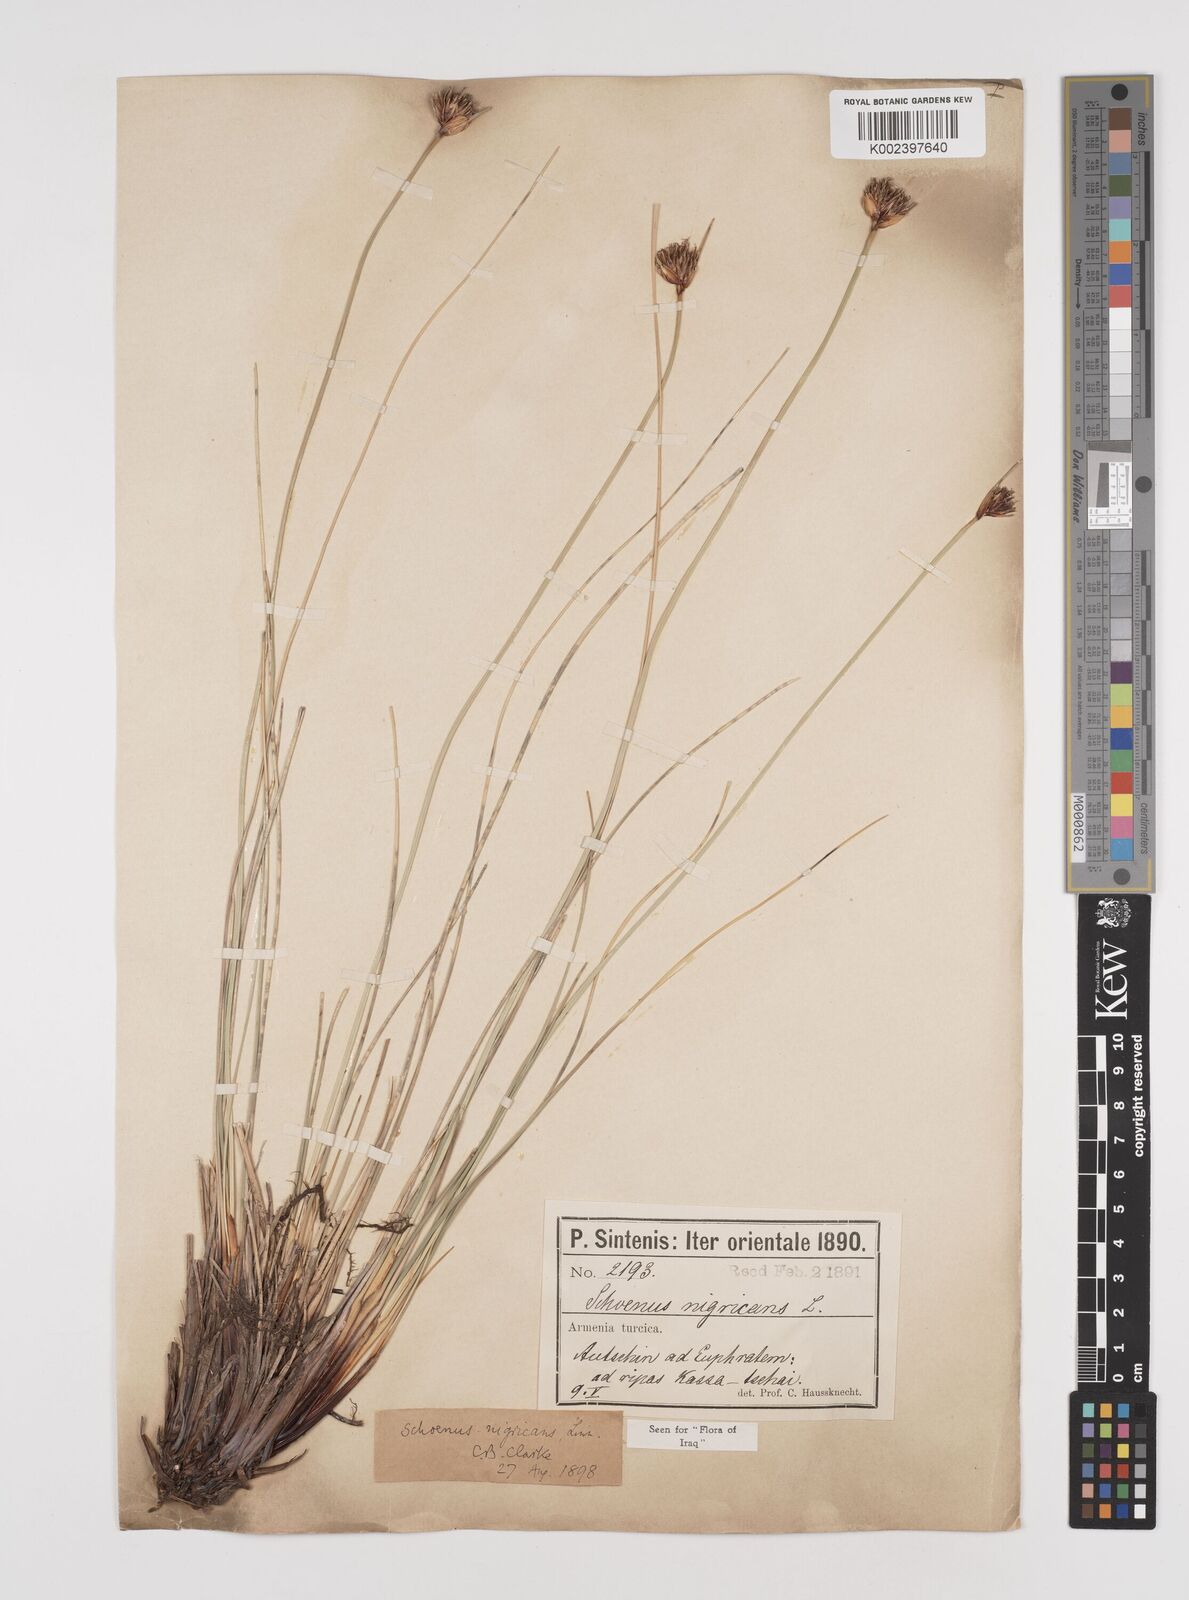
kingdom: Plantae
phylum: Tracheophyta
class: Liliopsida
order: Poales
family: Cyperaceae
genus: Schoenus
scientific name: Schoenus nigricans
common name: Black bog-rush
